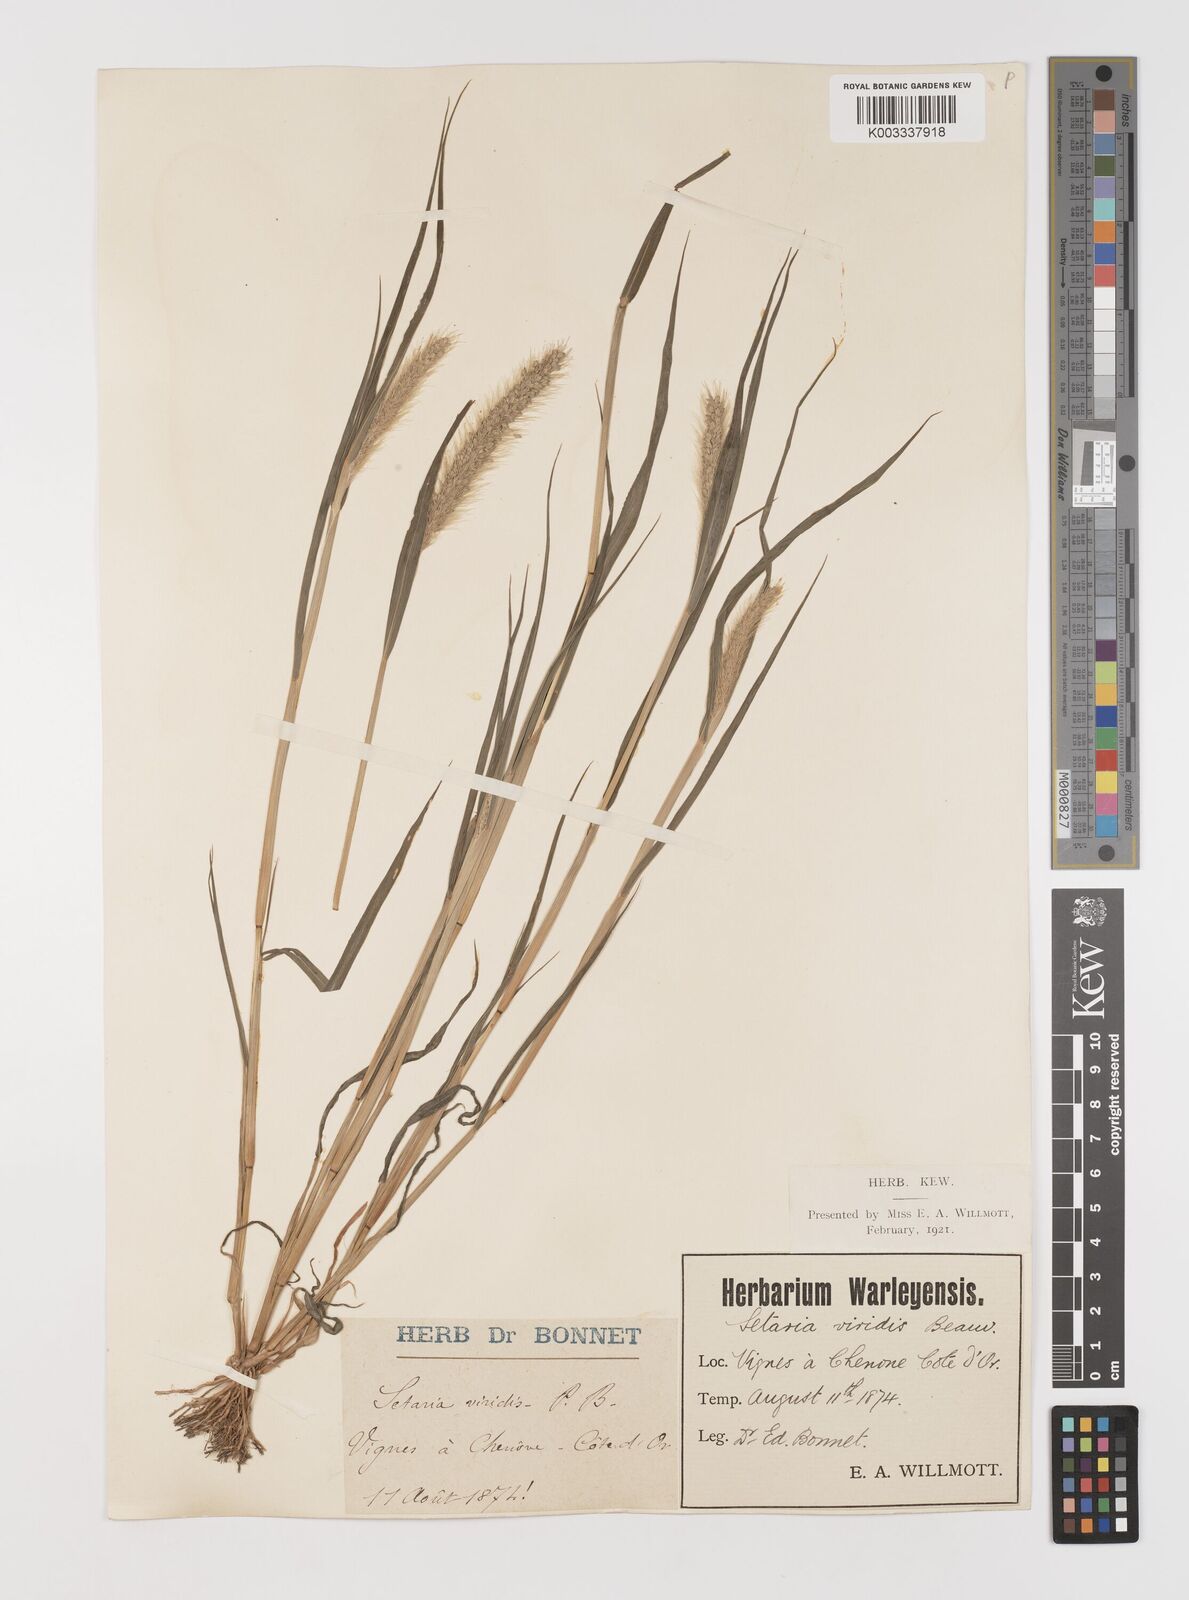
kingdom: Plantae
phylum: Tracheophyta
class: Liliopsida
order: Poales
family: Poaceae
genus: Setaria
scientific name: Setaria viridis
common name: Green bristlegrass
